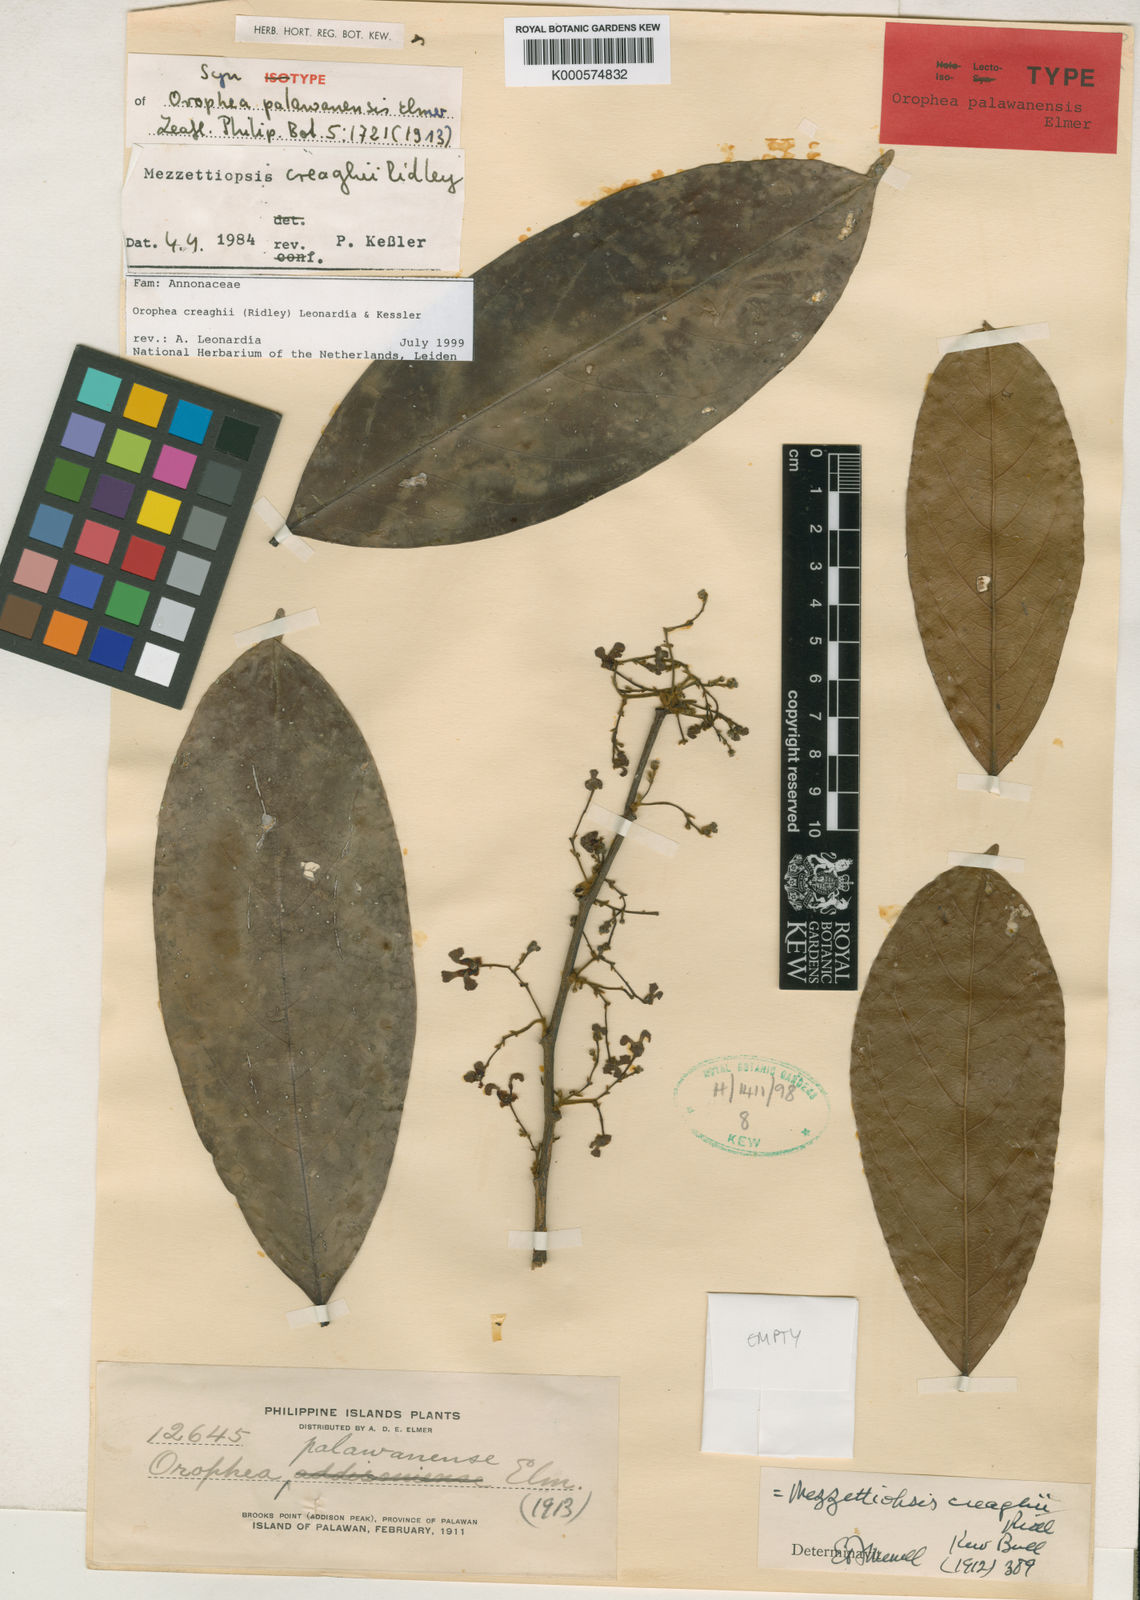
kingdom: Plantae
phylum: Tracheophyta
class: Magnoliopsida
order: Magnoliales
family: Annonaceae
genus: Orophea
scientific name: Orophea
